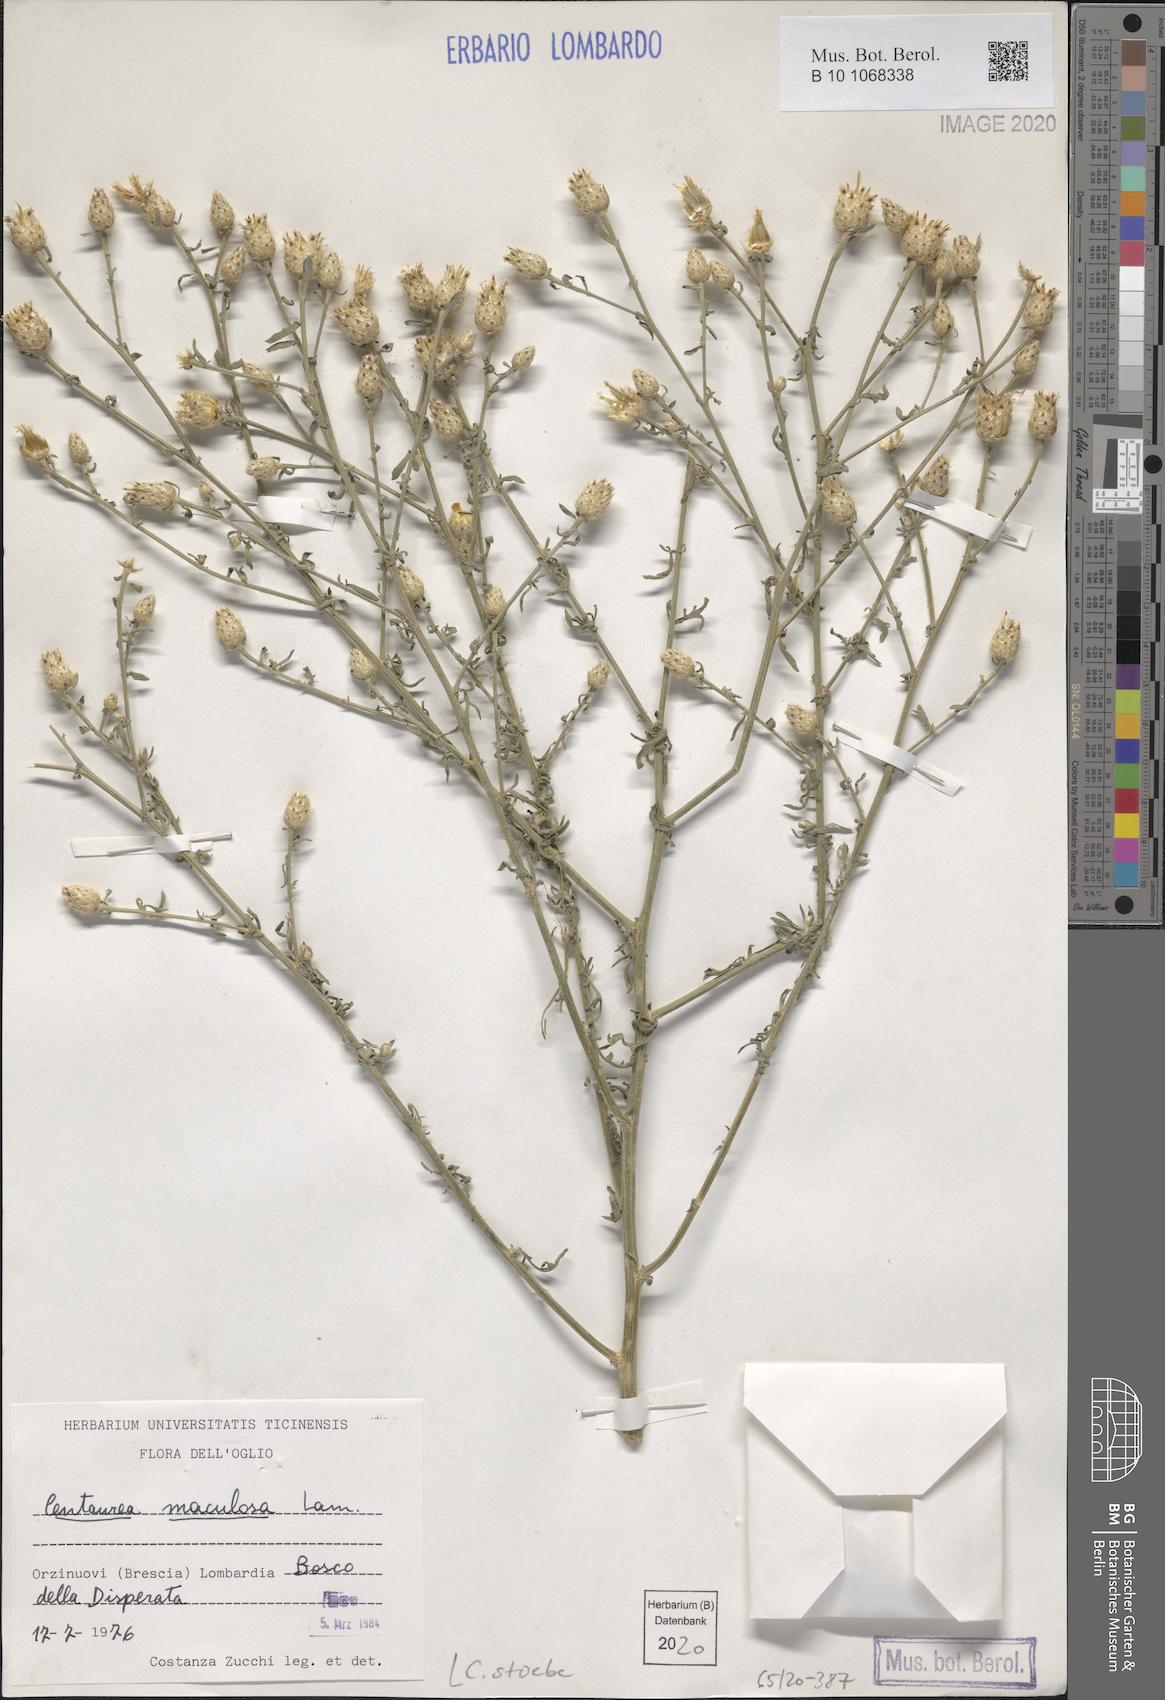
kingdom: Plantae
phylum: Tracheophyta
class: Magnoliopsida
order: Asterales
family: Asteraceae
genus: Centaurea
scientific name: Centaurea stoebe
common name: Spotted knapweed
